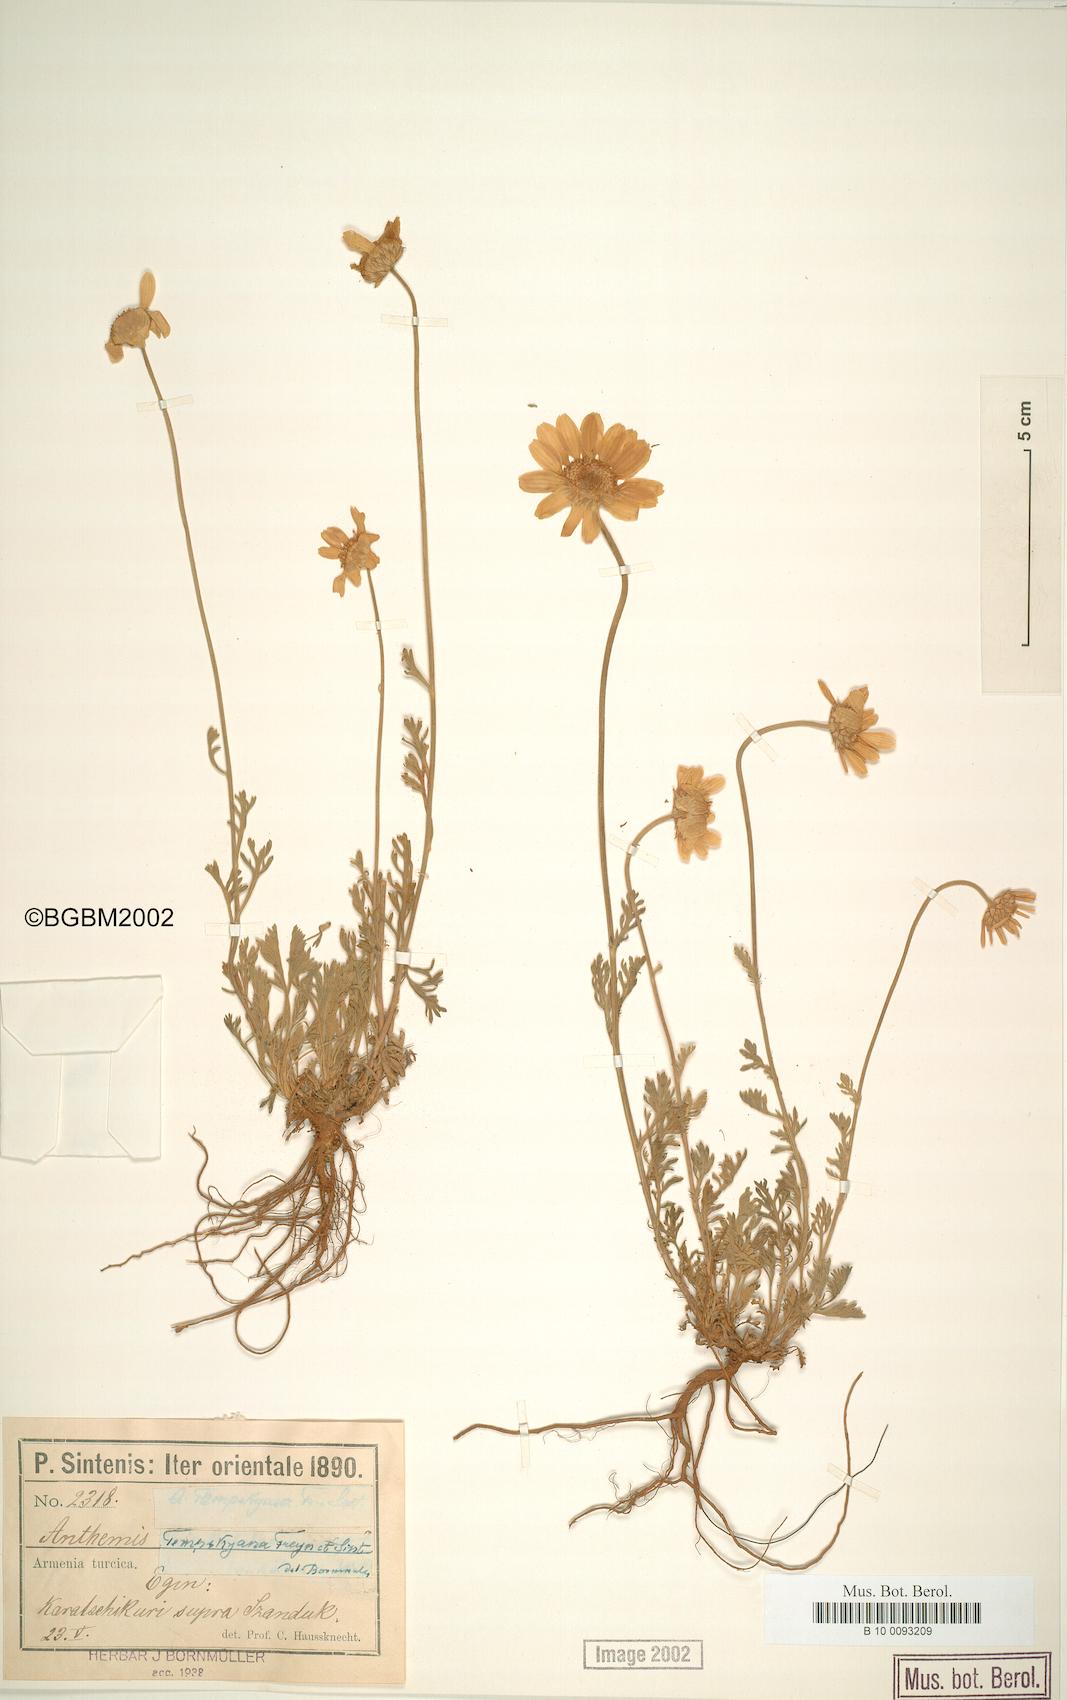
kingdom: Plantae
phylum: Tracheophyta
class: Magnoliopsida
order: Asterales
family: Asteraceae
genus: Anthemis
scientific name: Anthemis cretica
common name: Mountain dog-daisy
